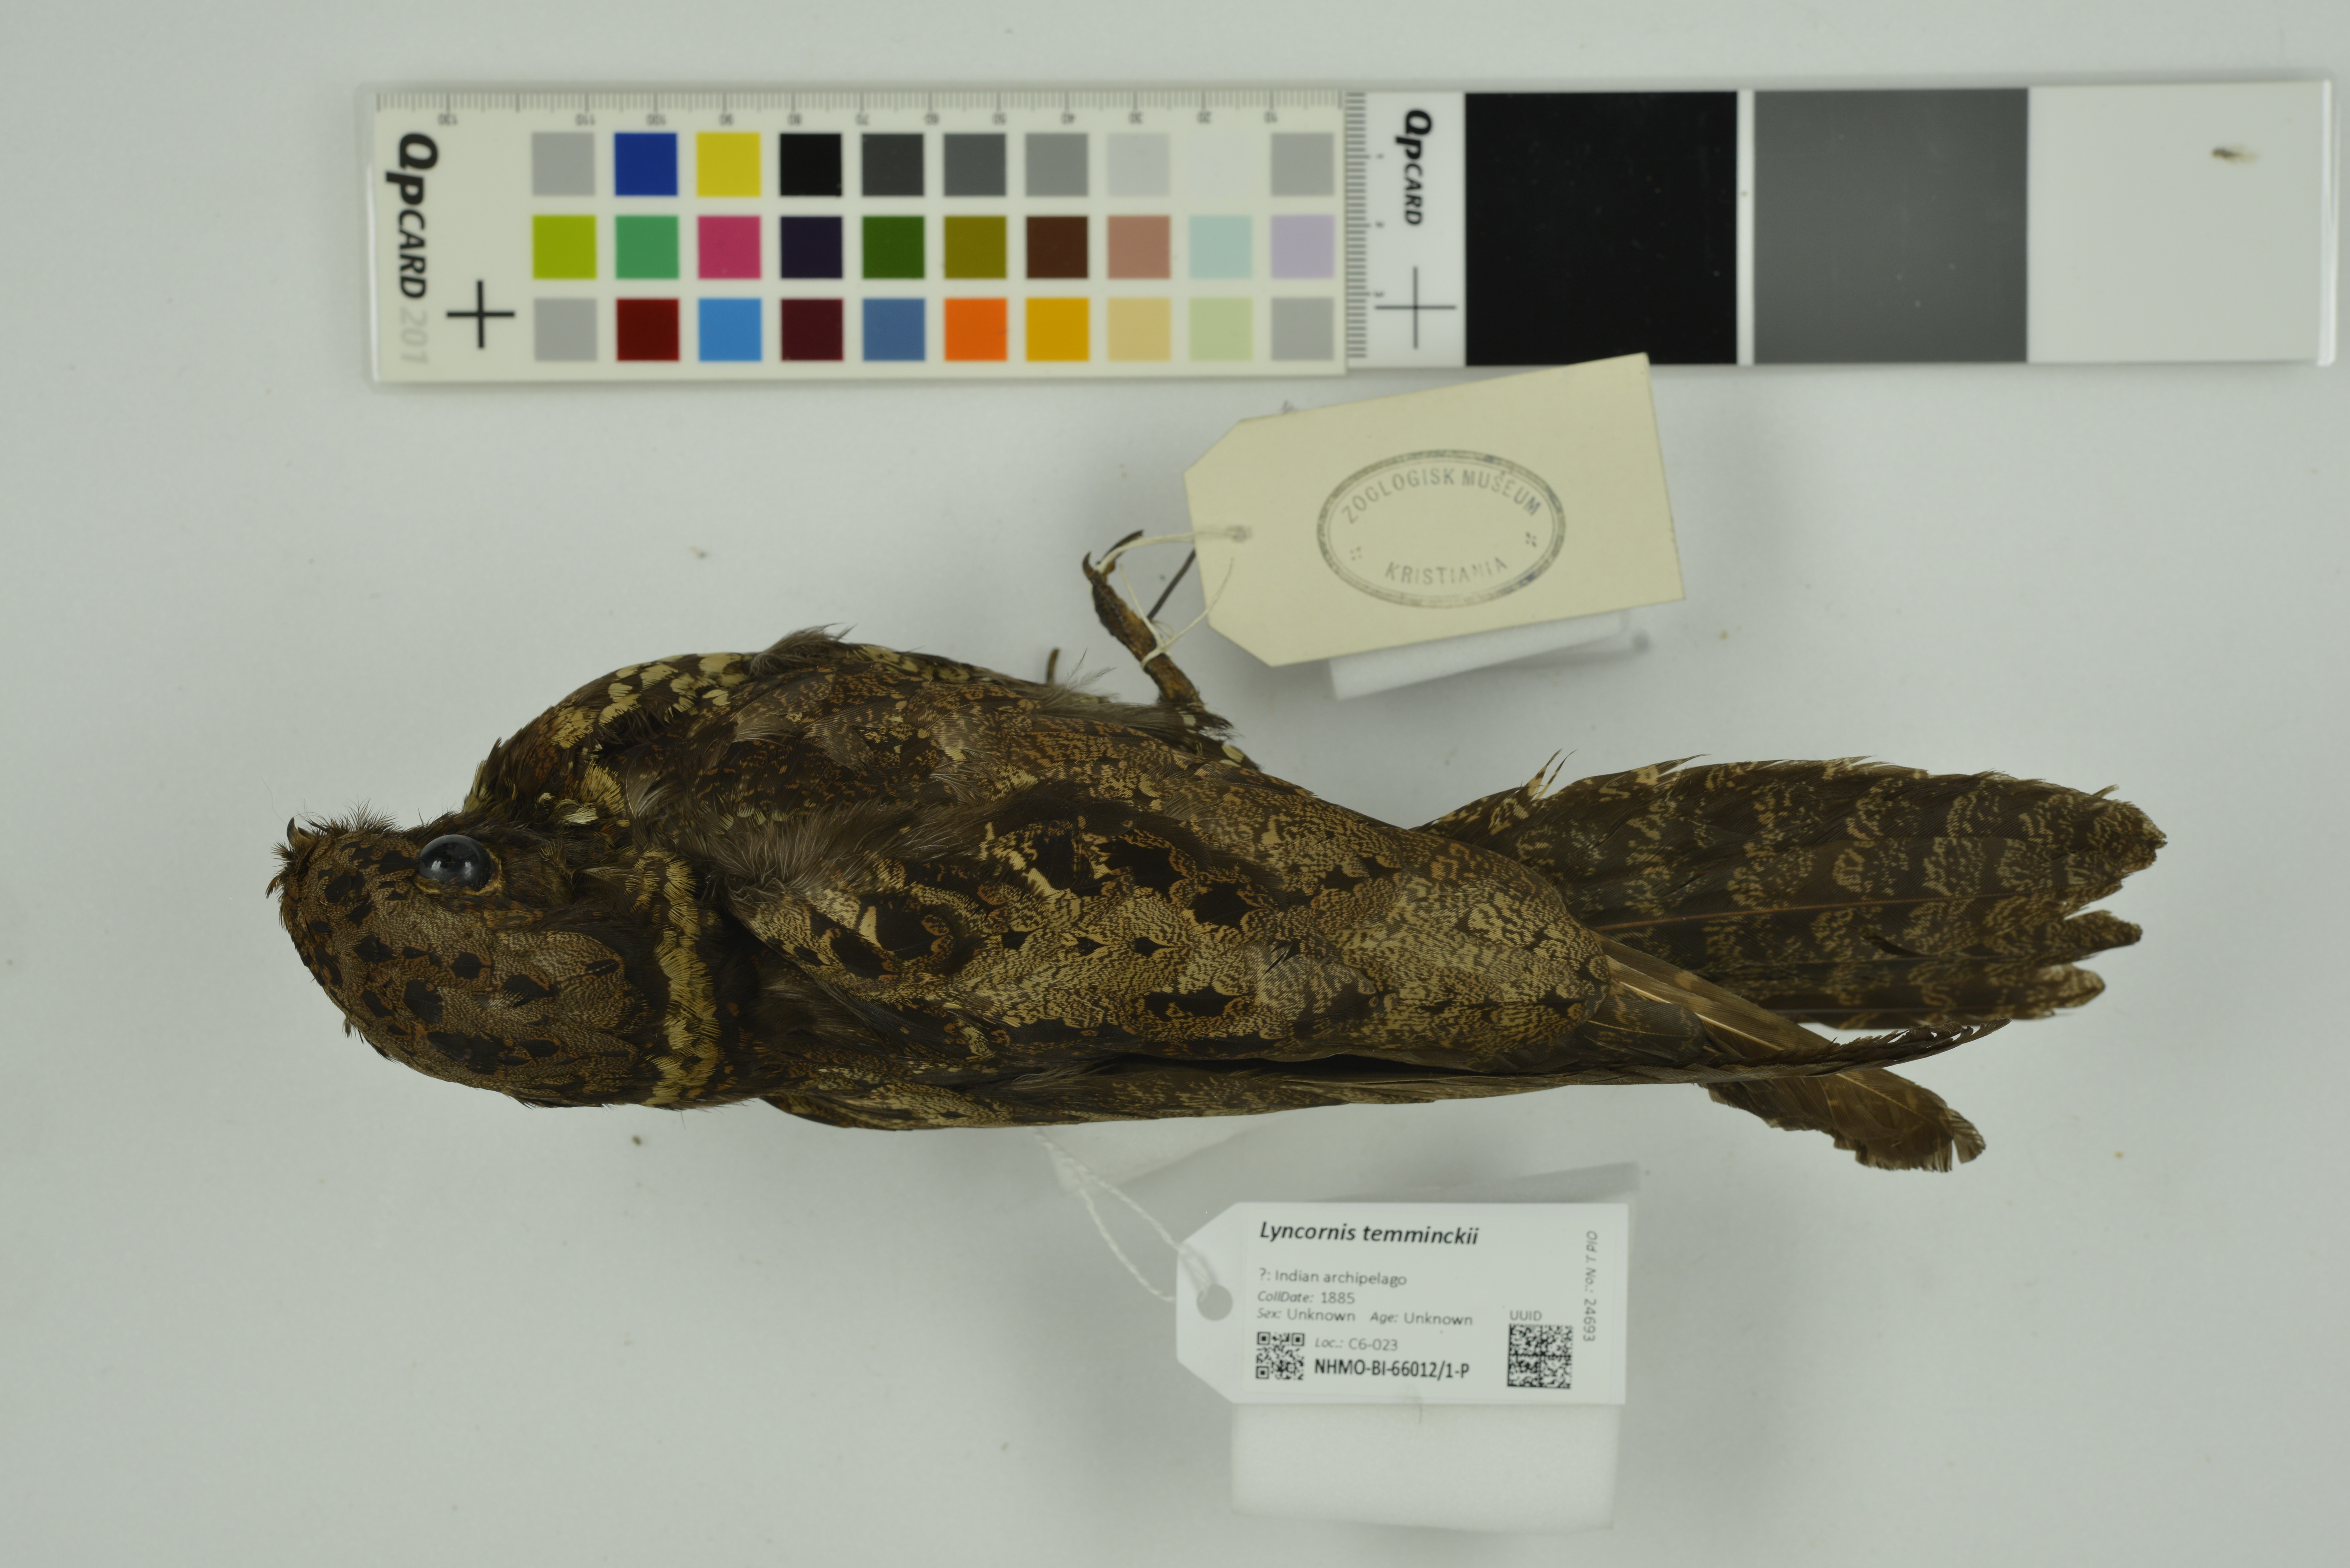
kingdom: Animalia
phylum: Chordata
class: Aves
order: Caprimulgiformes
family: Caprimulgidae
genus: Lyncornis
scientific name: Lyncornis temminckii
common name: Malaysian eared nightjar
